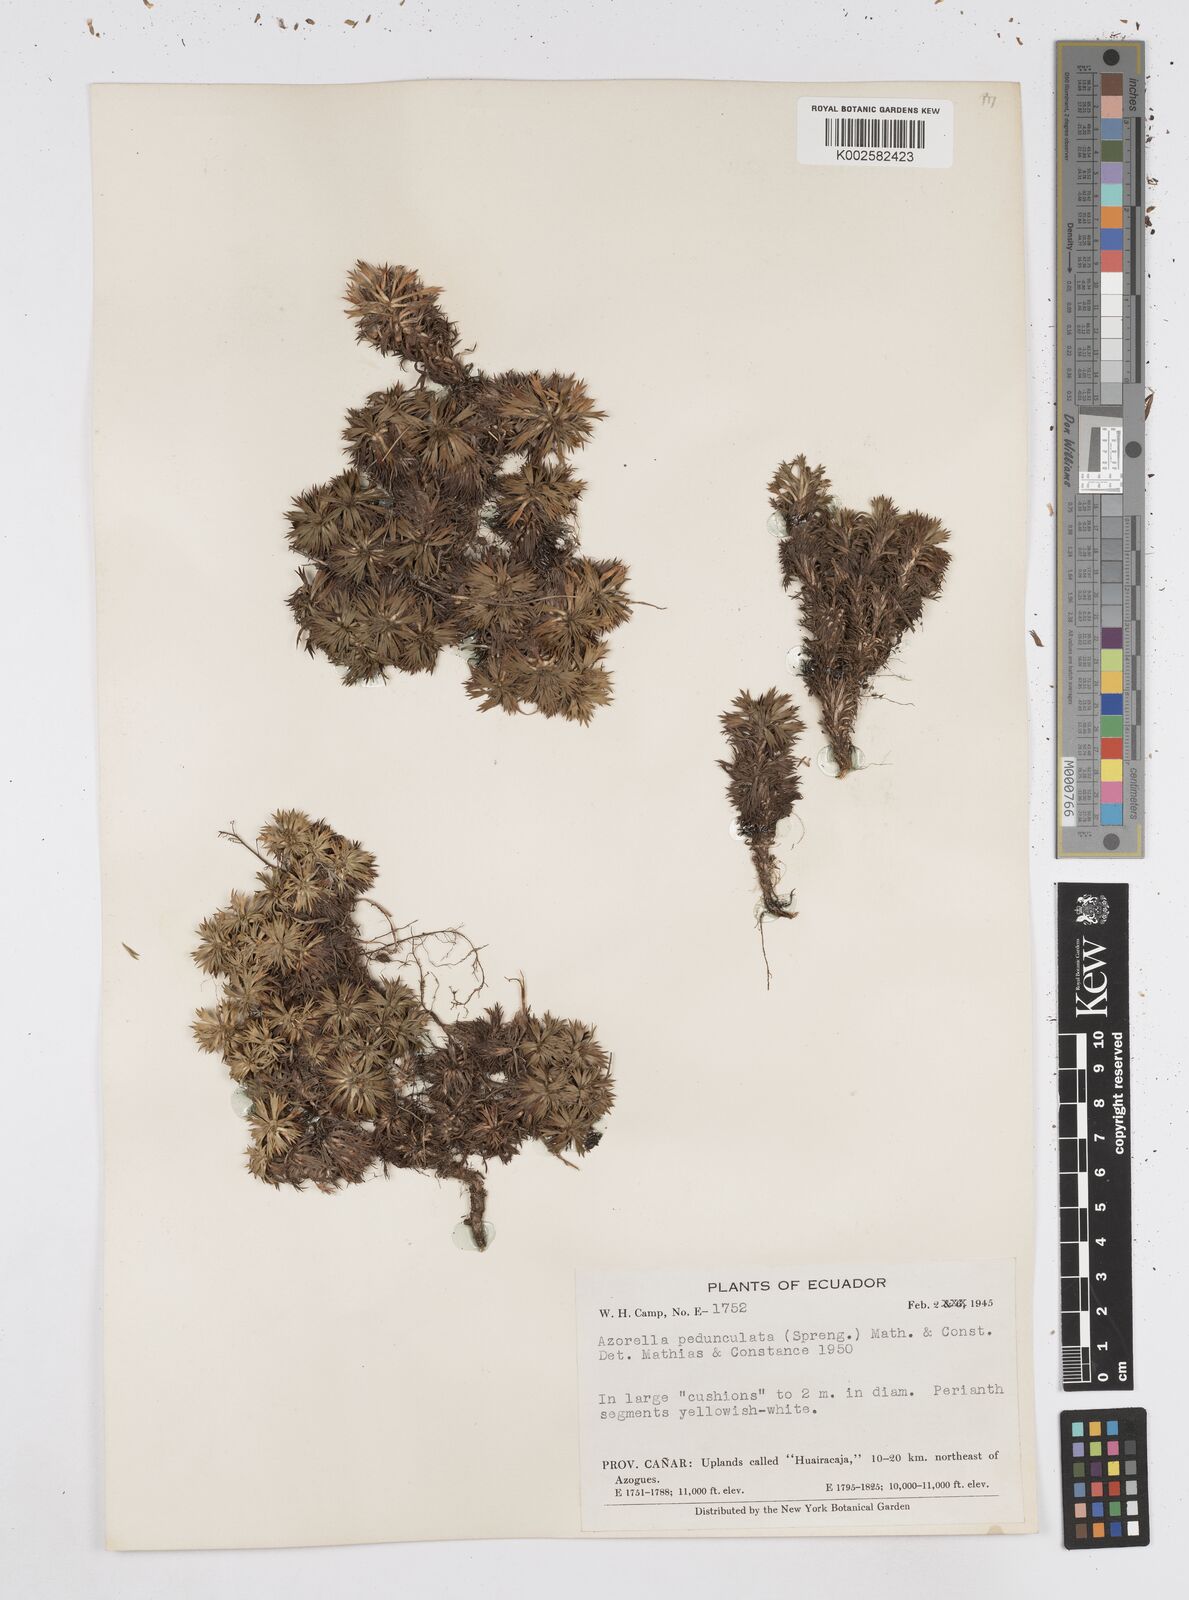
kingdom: Plantae
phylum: Tracheophyta
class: Magnoliopsida
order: Apiales
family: Apiaceae
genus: Azorella
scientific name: Azorella pedunculata
